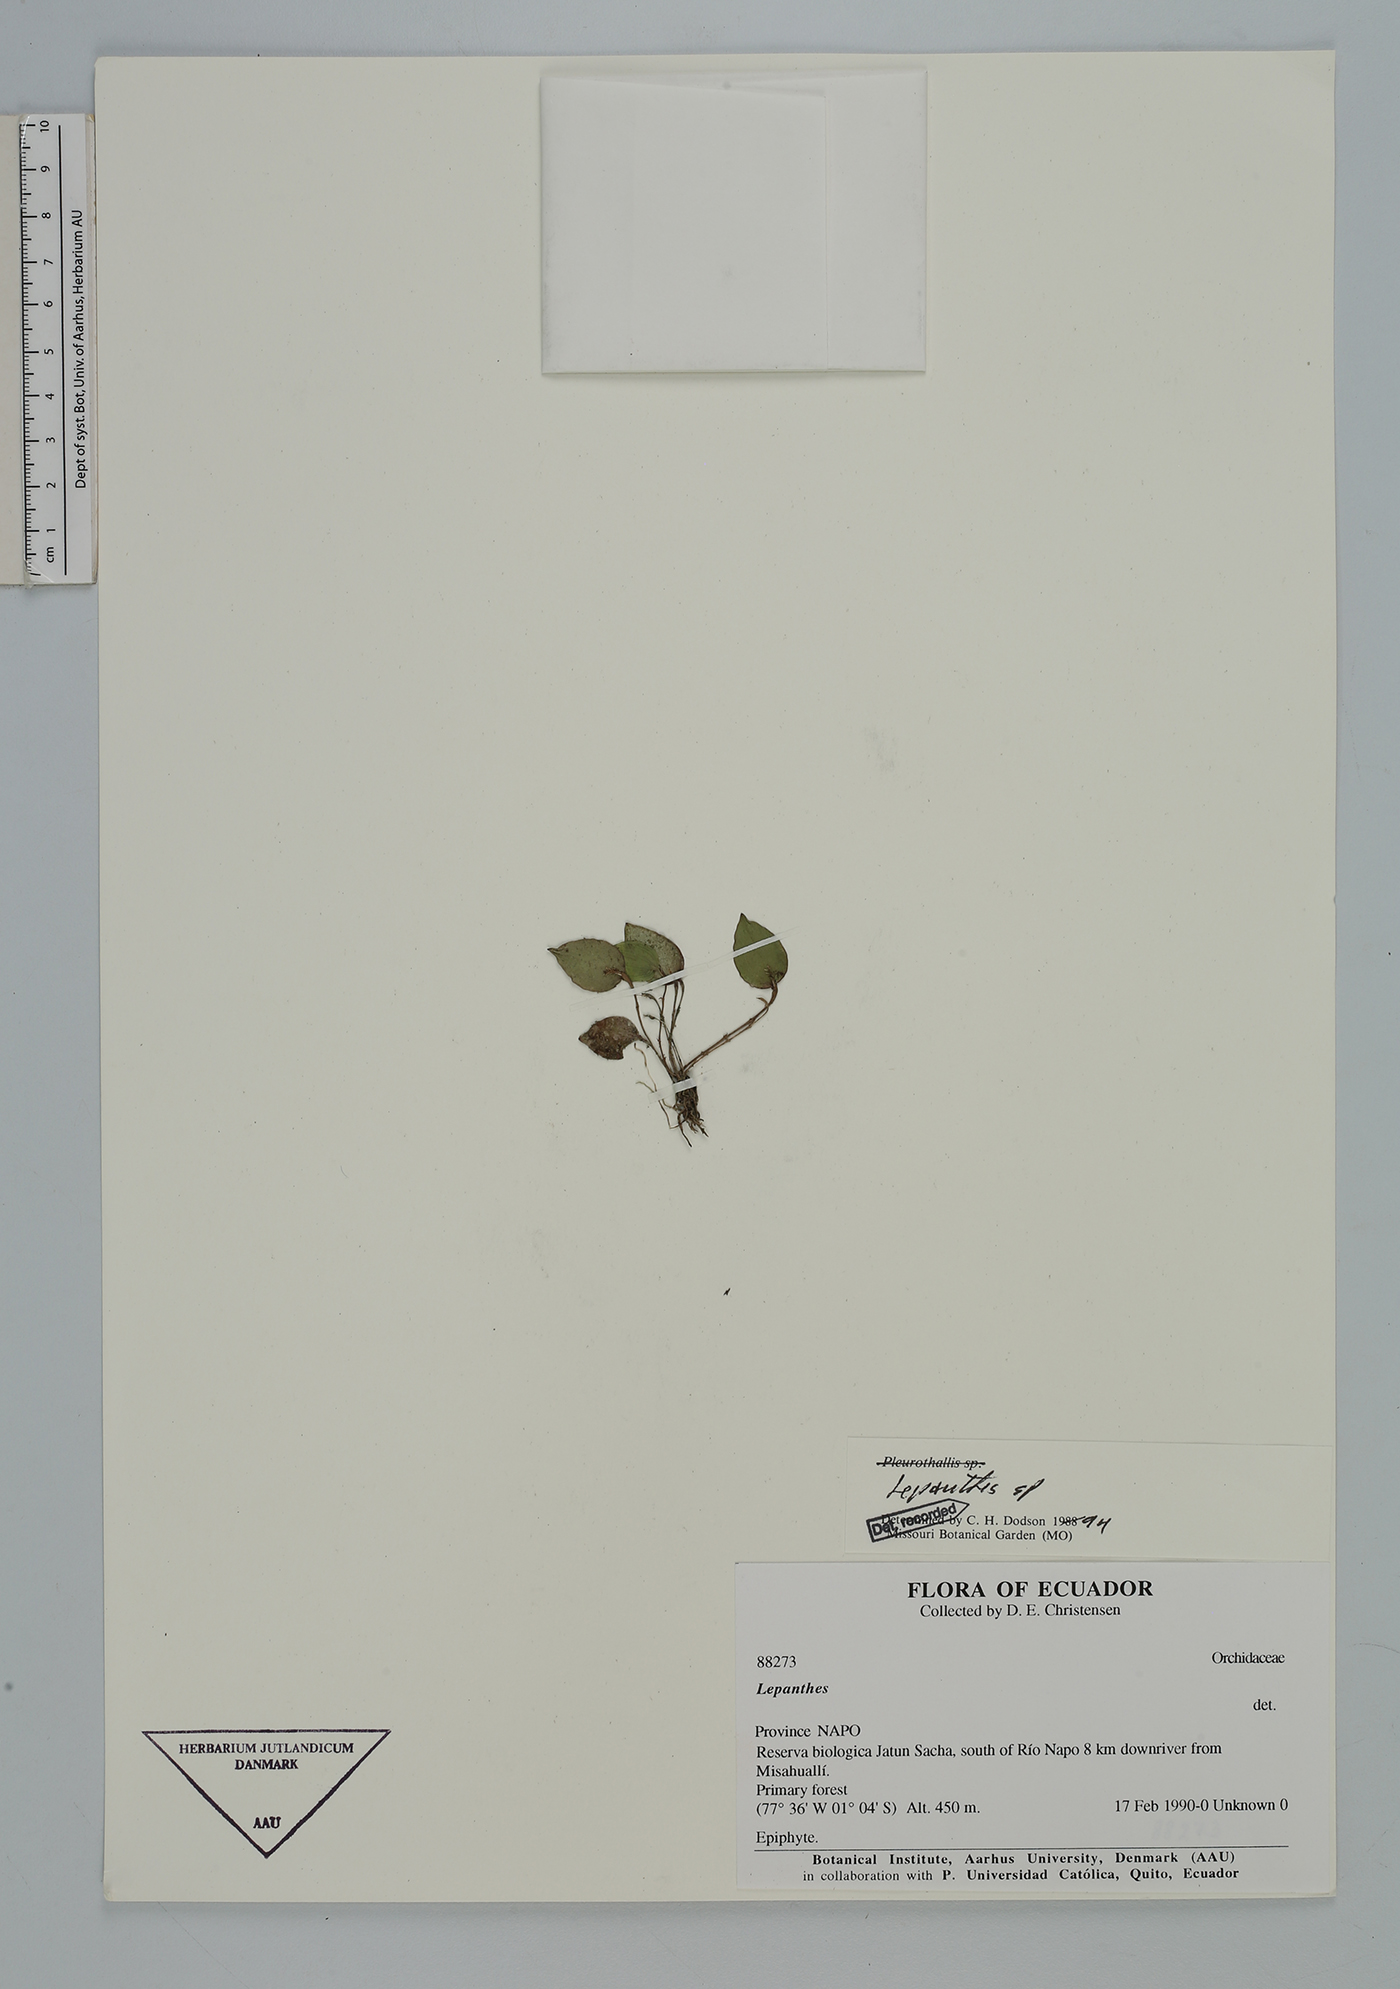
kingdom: Plantae
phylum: Tracheophyta
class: Liliopsida
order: Asparagales
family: Orchidaceae
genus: Lepanthes
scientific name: Lepanthes
